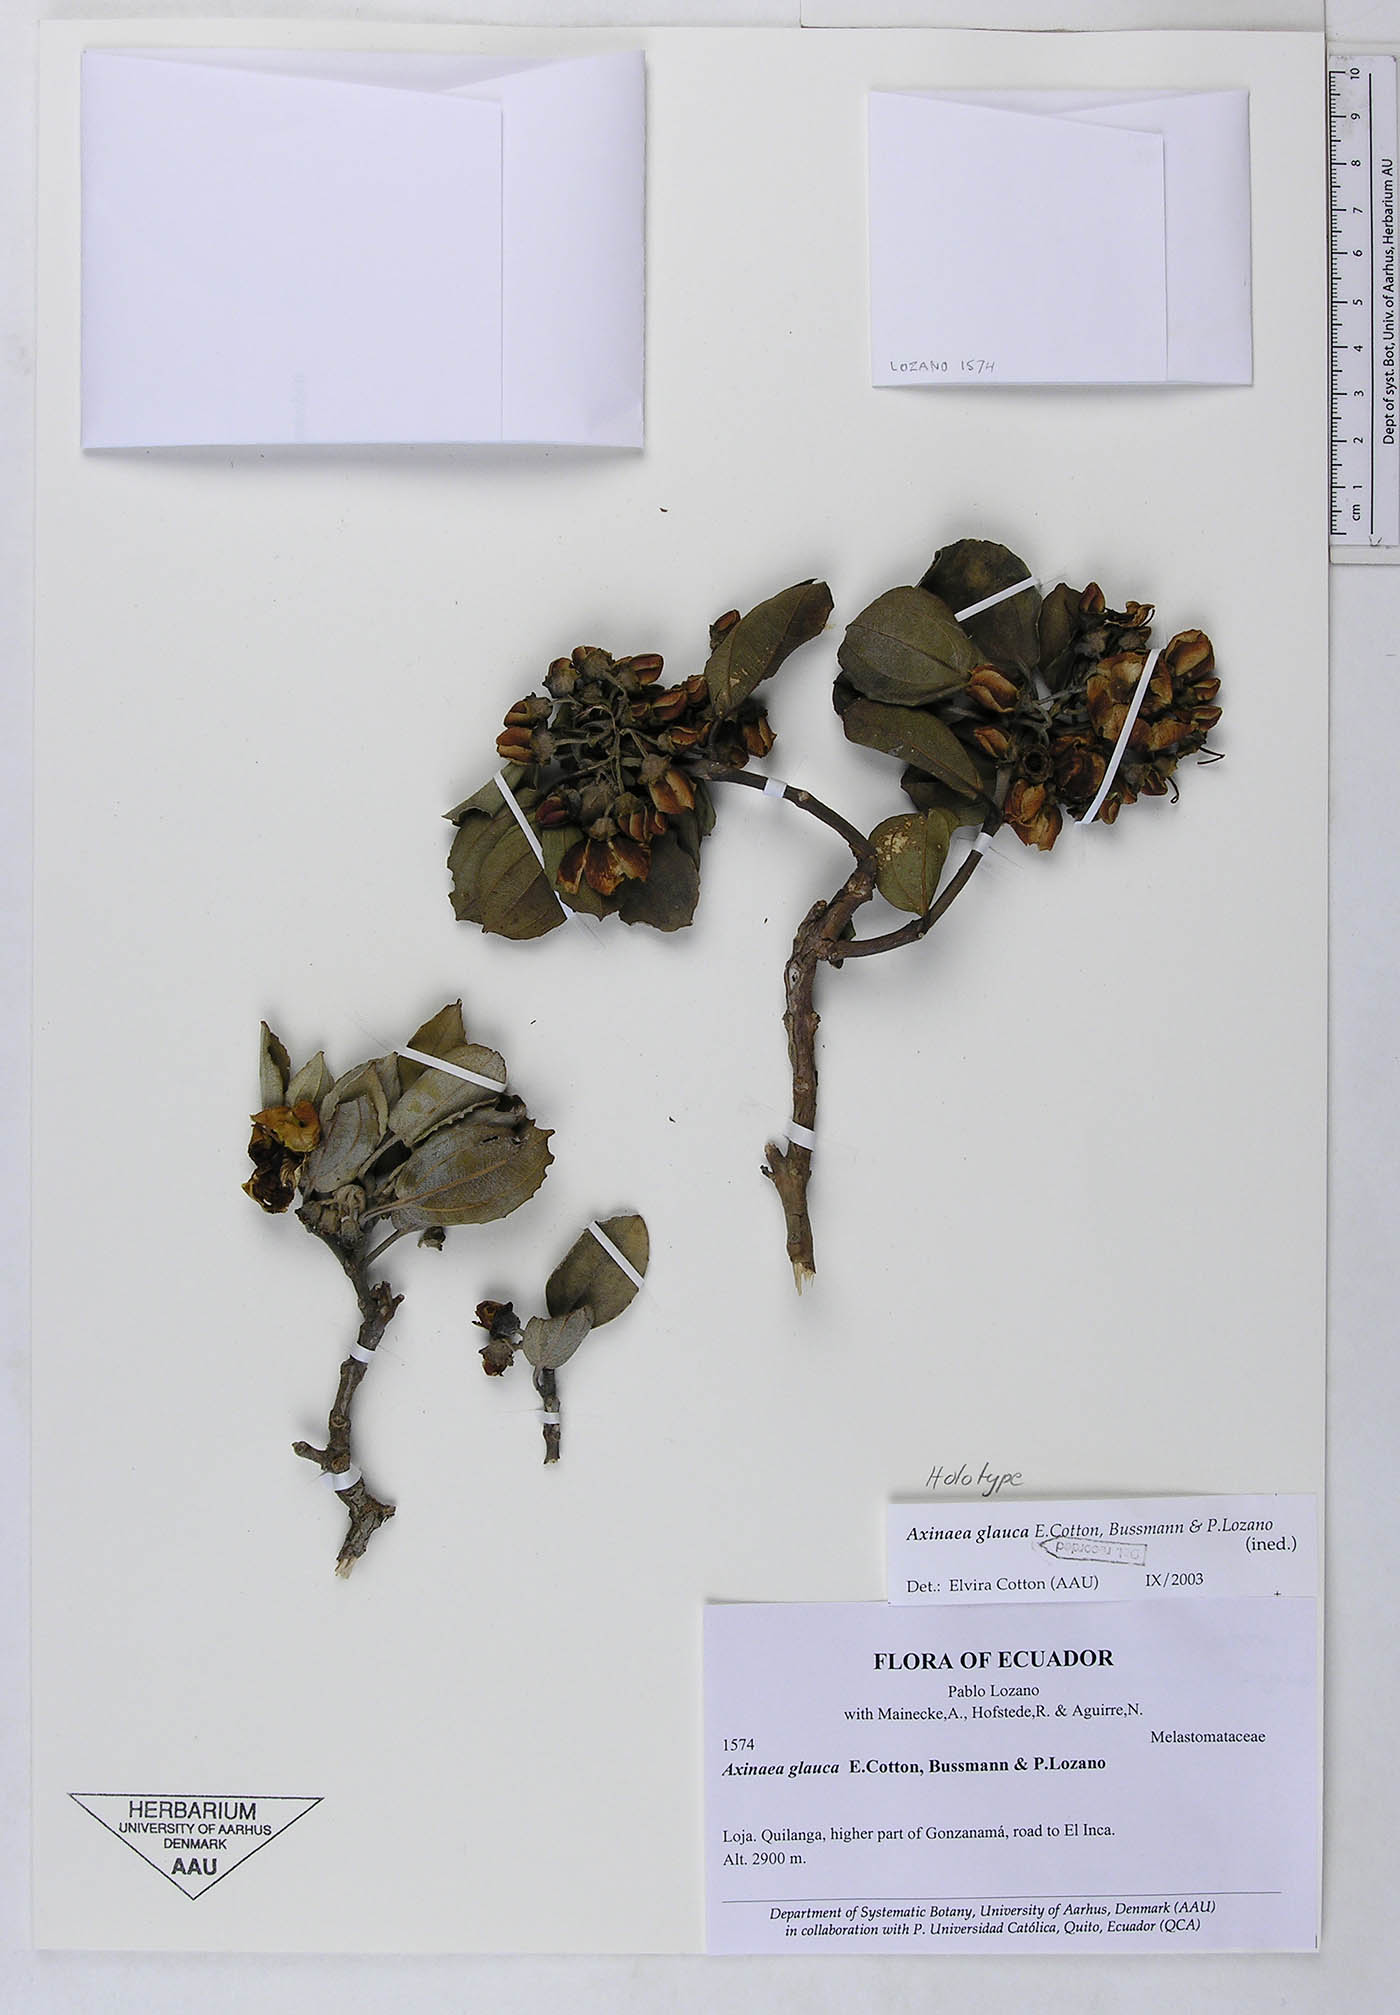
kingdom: Plantae
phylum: Tracheophyta
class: Magnoliopsida
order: Myrtales
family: Melastomataceae
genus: Axinaea
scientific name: Axinaea glauca
